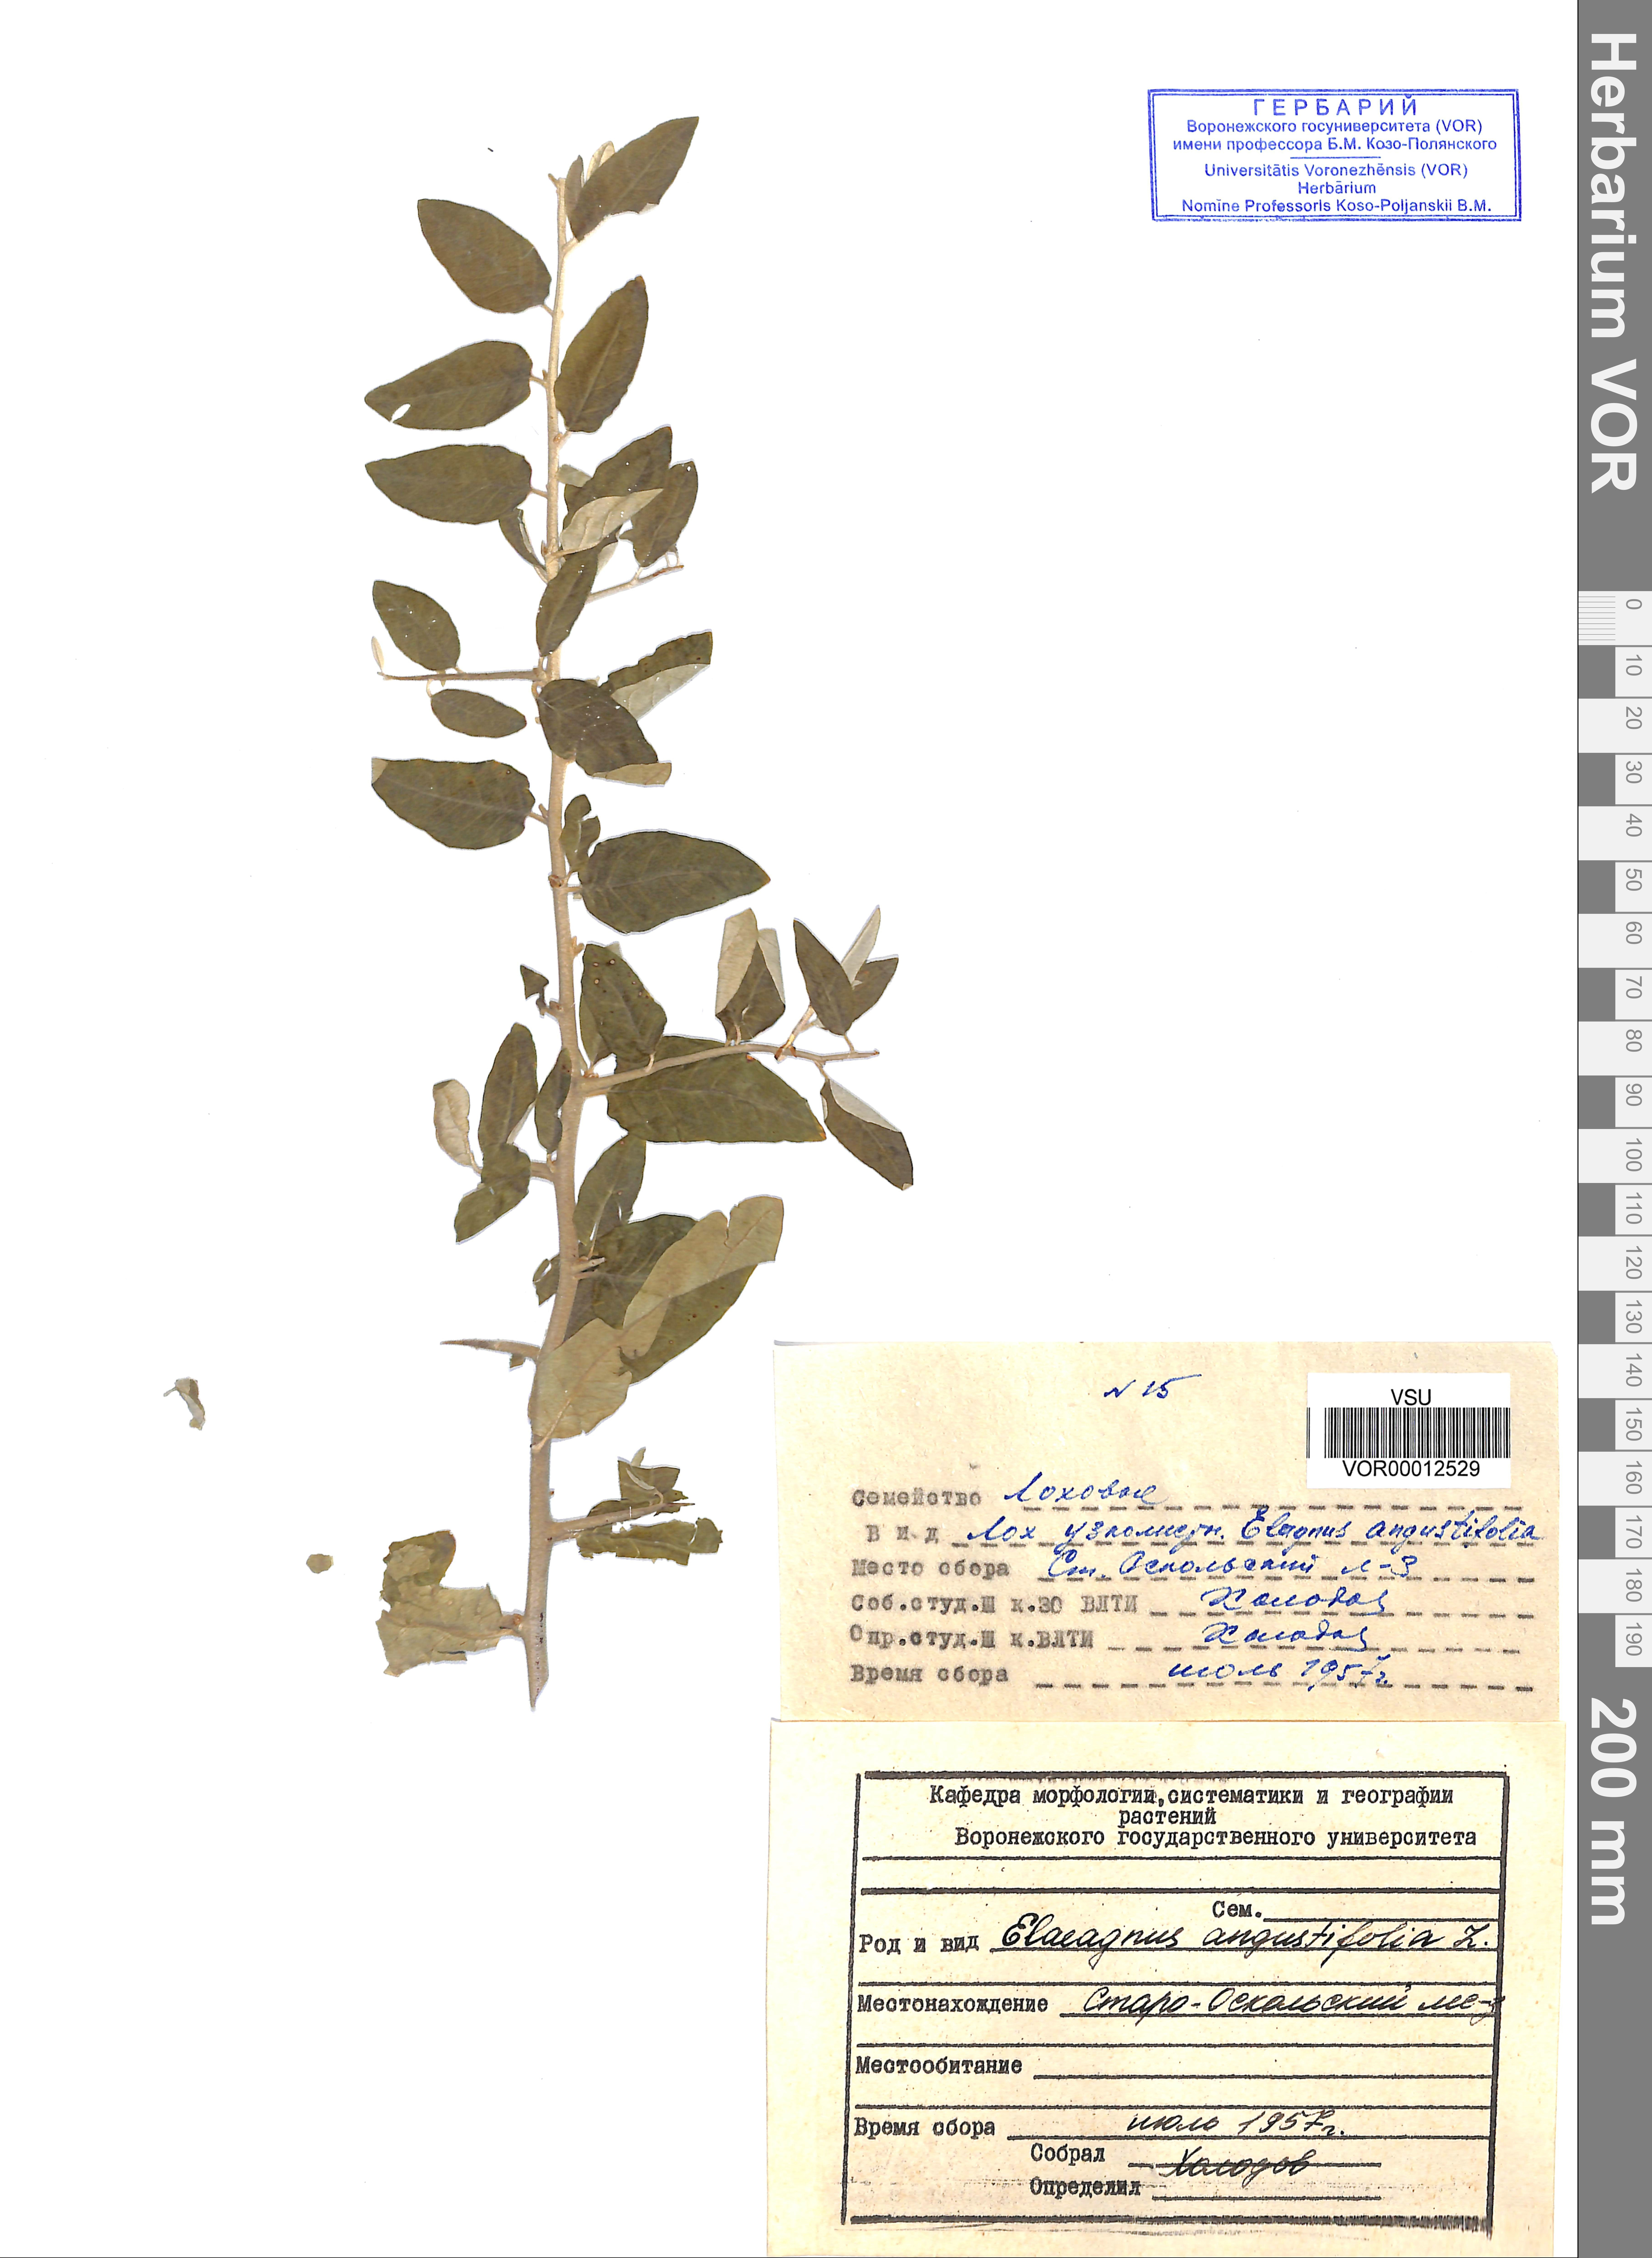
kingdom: Plantae
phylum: Tracheophyta
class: Magnoliopsida
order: Rosales
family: Elaeagnaceae
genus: Elaeagnus
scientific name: Elaeagnus angustifolia
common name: Russian olive
